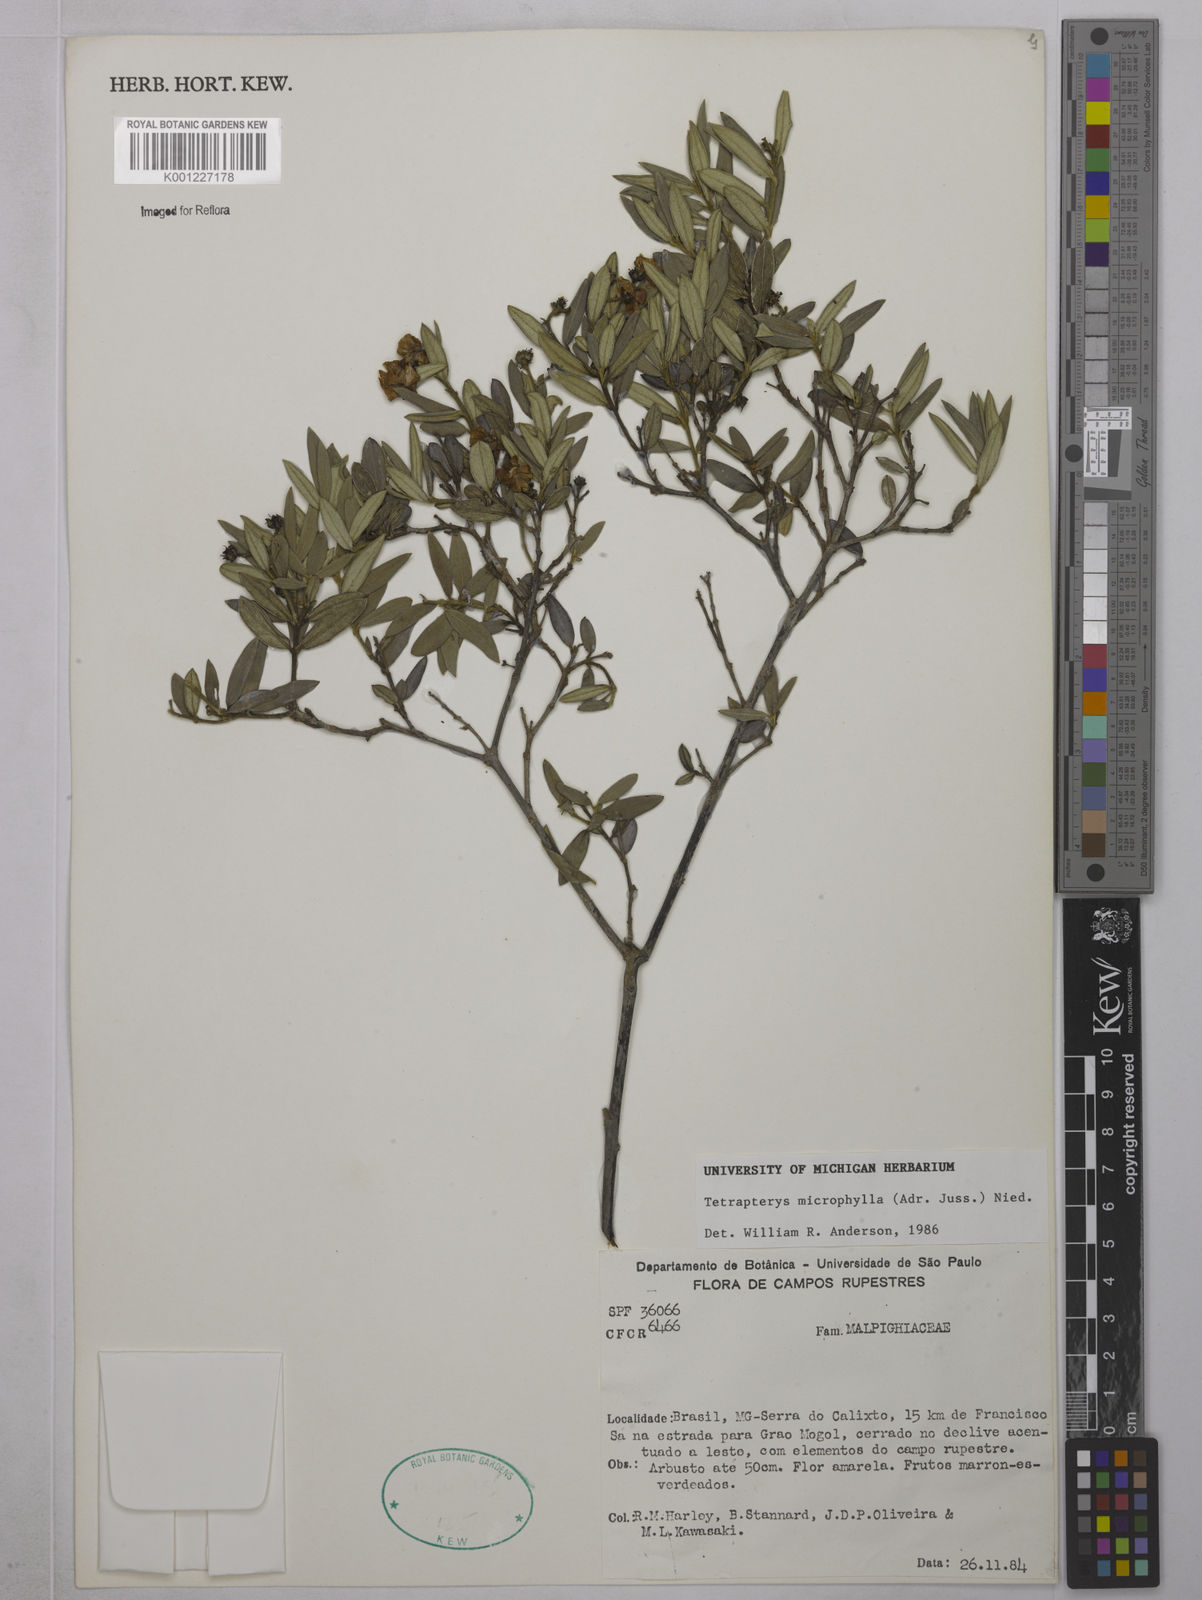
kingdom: Plantae
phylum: Tracheophyta
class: Magnoliopsida
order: Malpighiales
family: Malpighiaceae
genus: Glicophyllum
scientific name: Glicophyllum microphyllum
